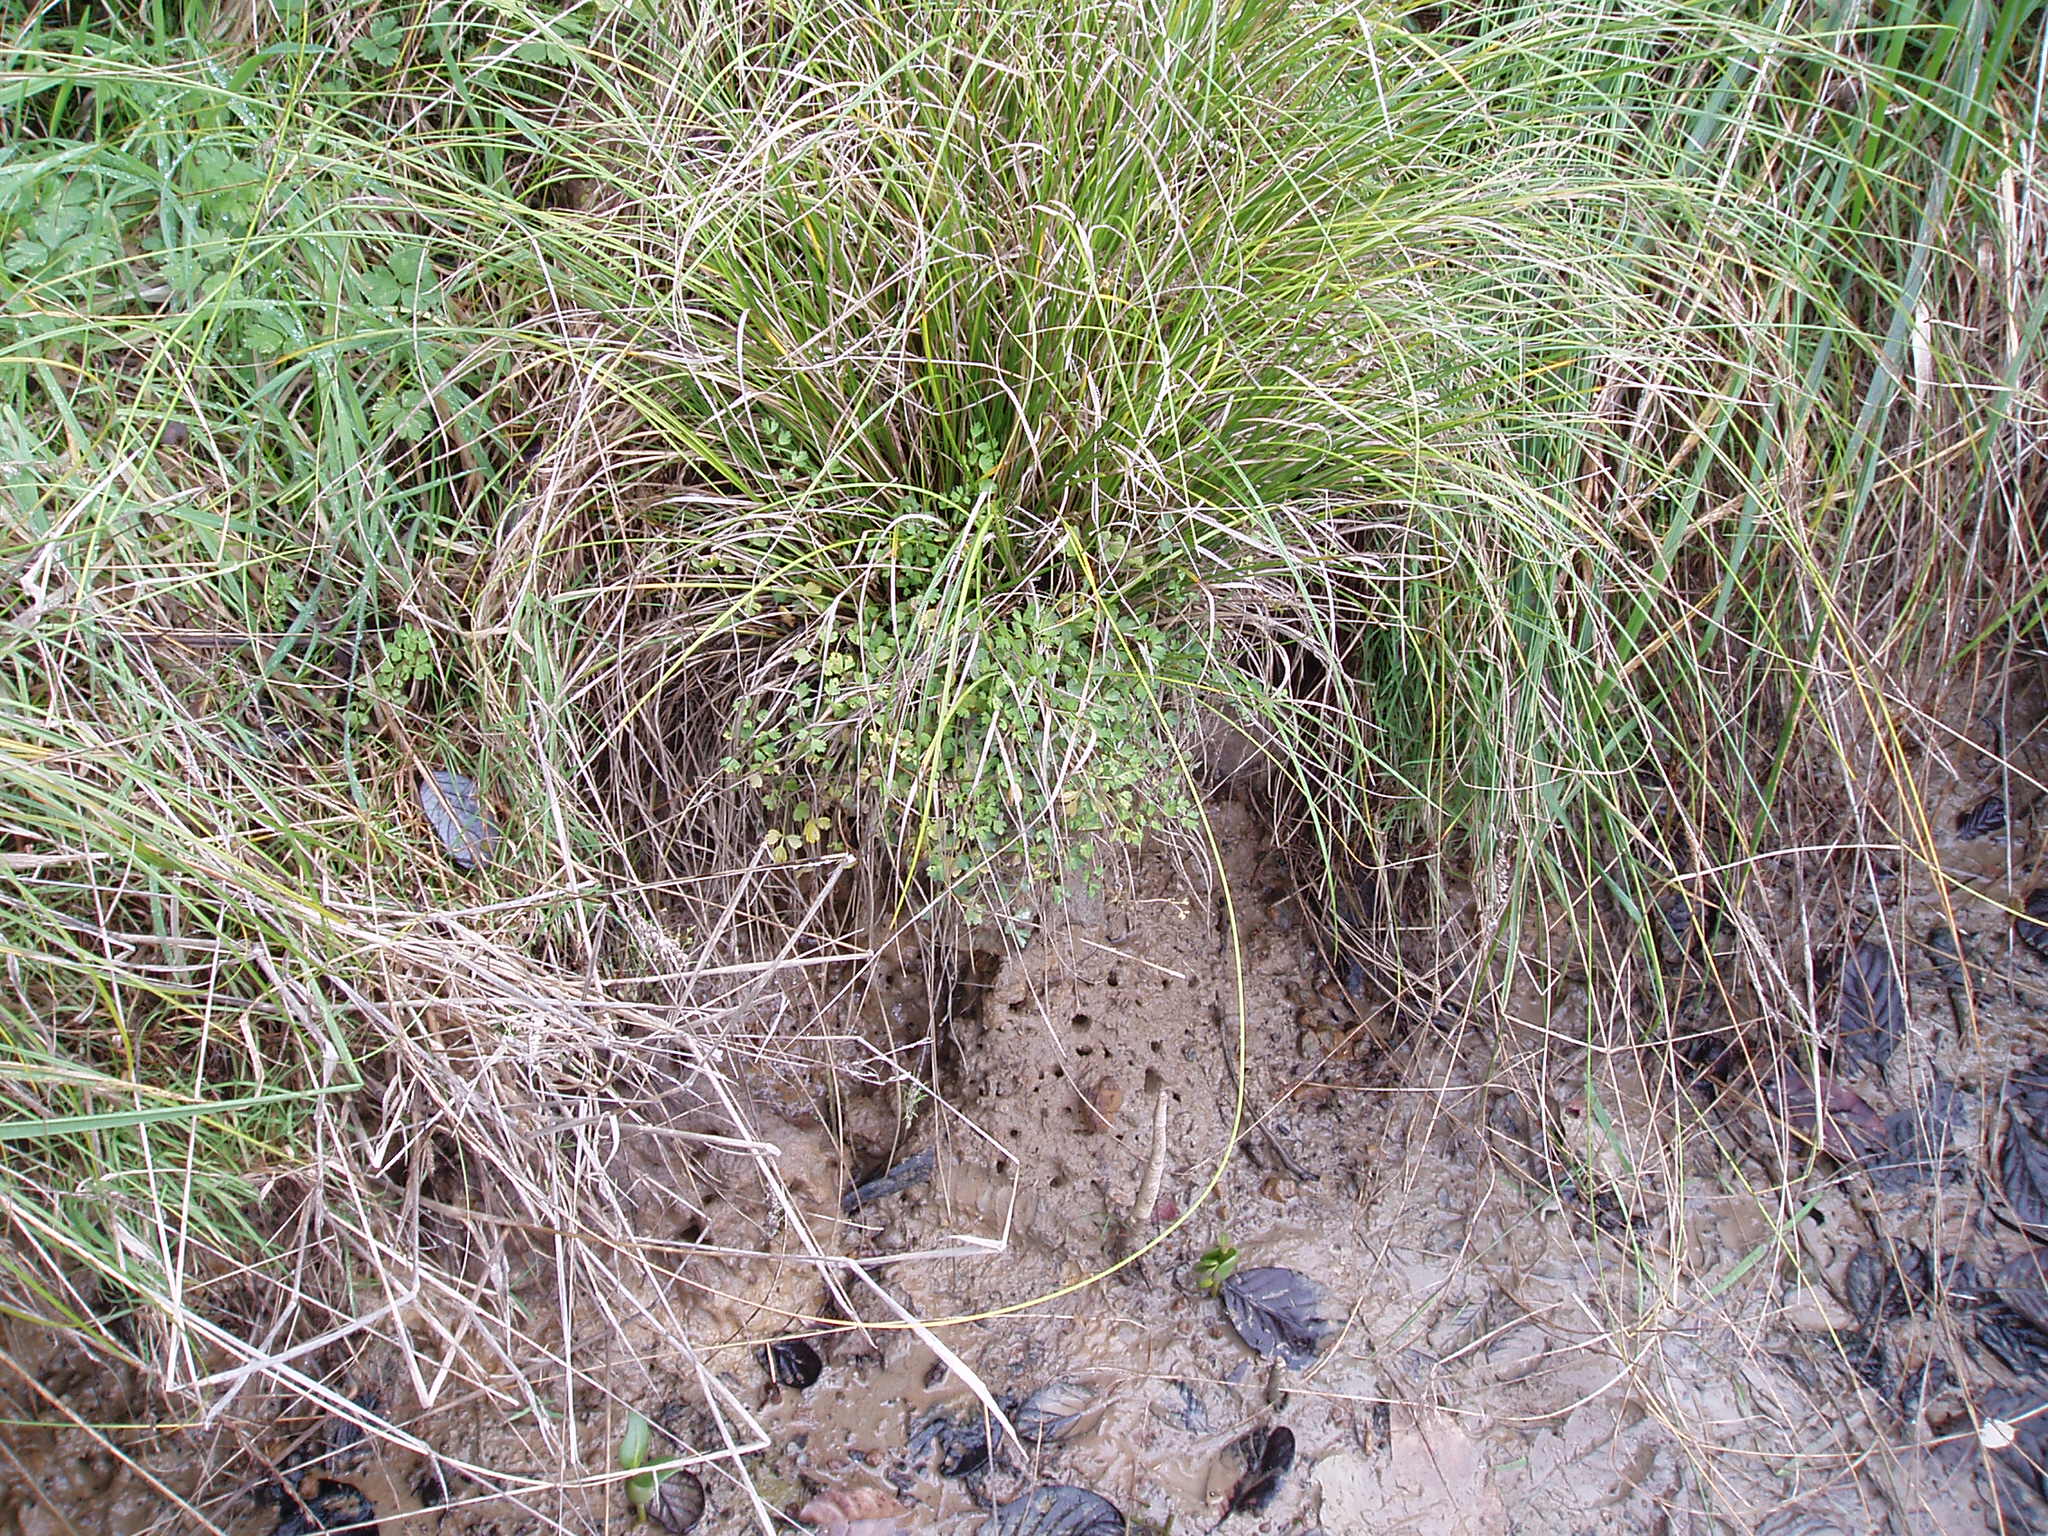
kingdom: Plantae
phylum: Tracheophyta
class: Magnoliopsida
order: Apiales
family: Apiaceae
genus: Apium
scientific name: Apium
